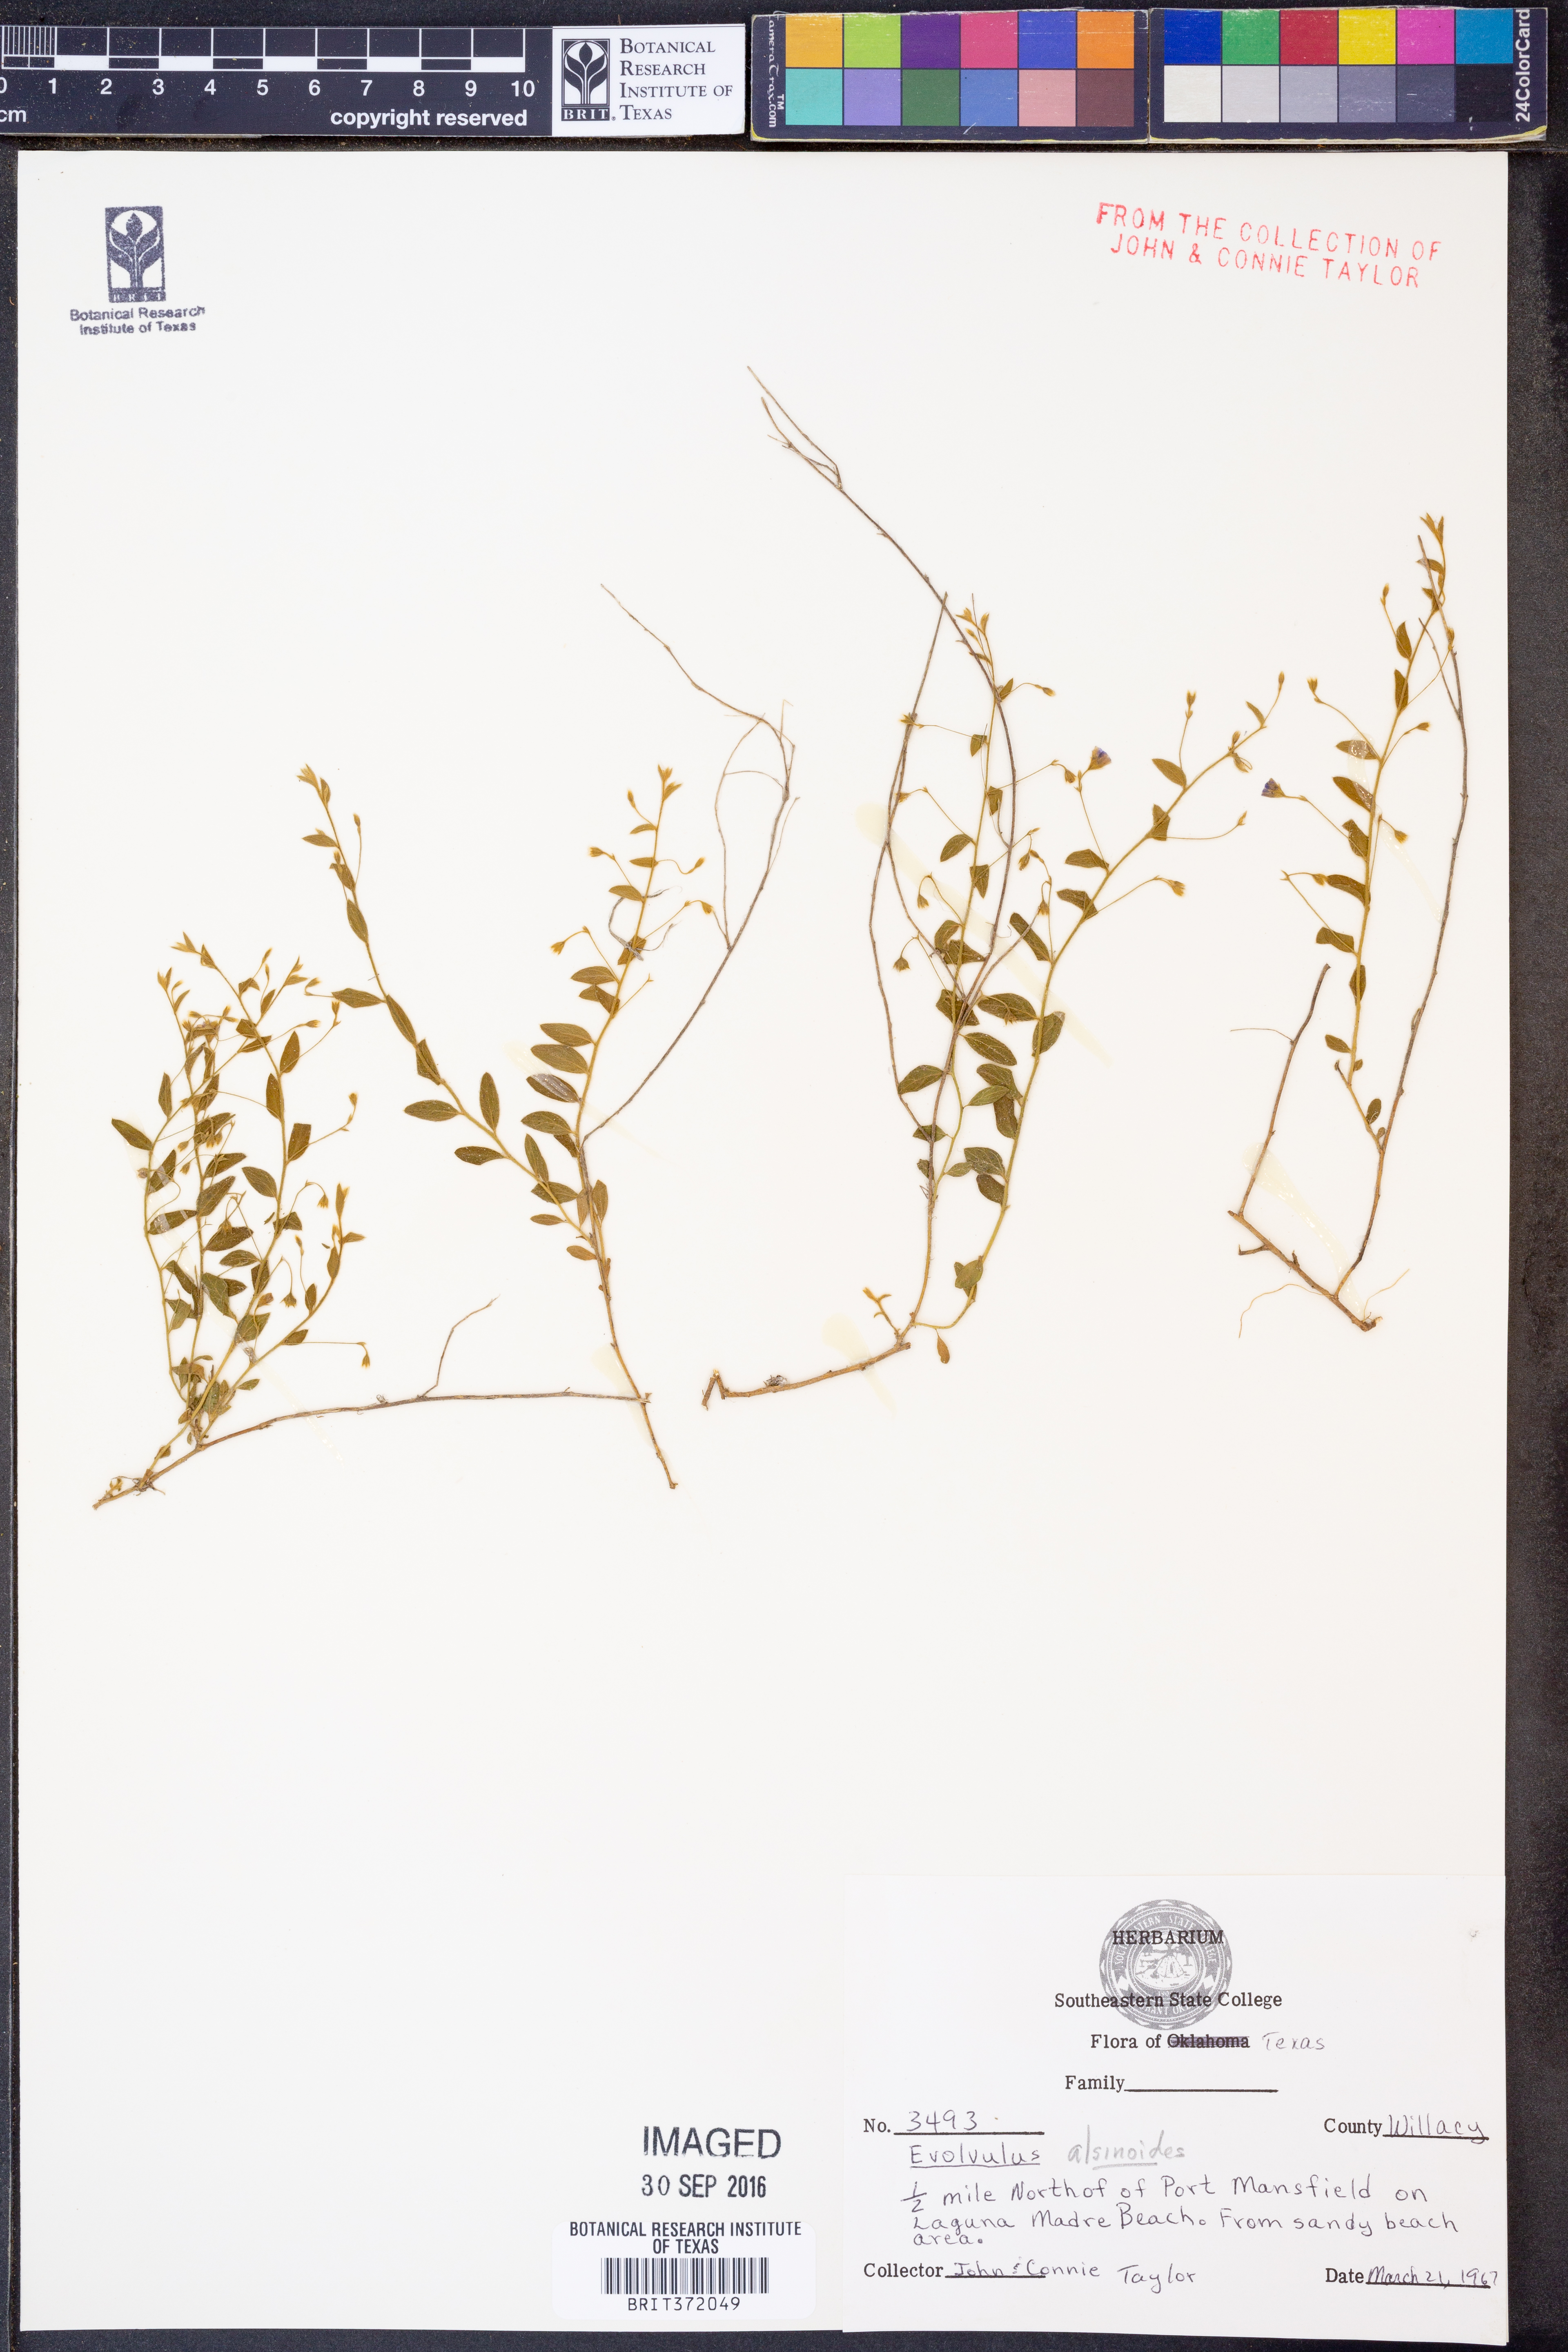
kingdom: Plantae
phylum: Tracheophyta
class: Magnoliopsida
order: Solanales
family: Convolvulaceae
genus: Evolvulus
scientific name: Evolvulus alsinoides
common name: Slender dwarf morning-glory
